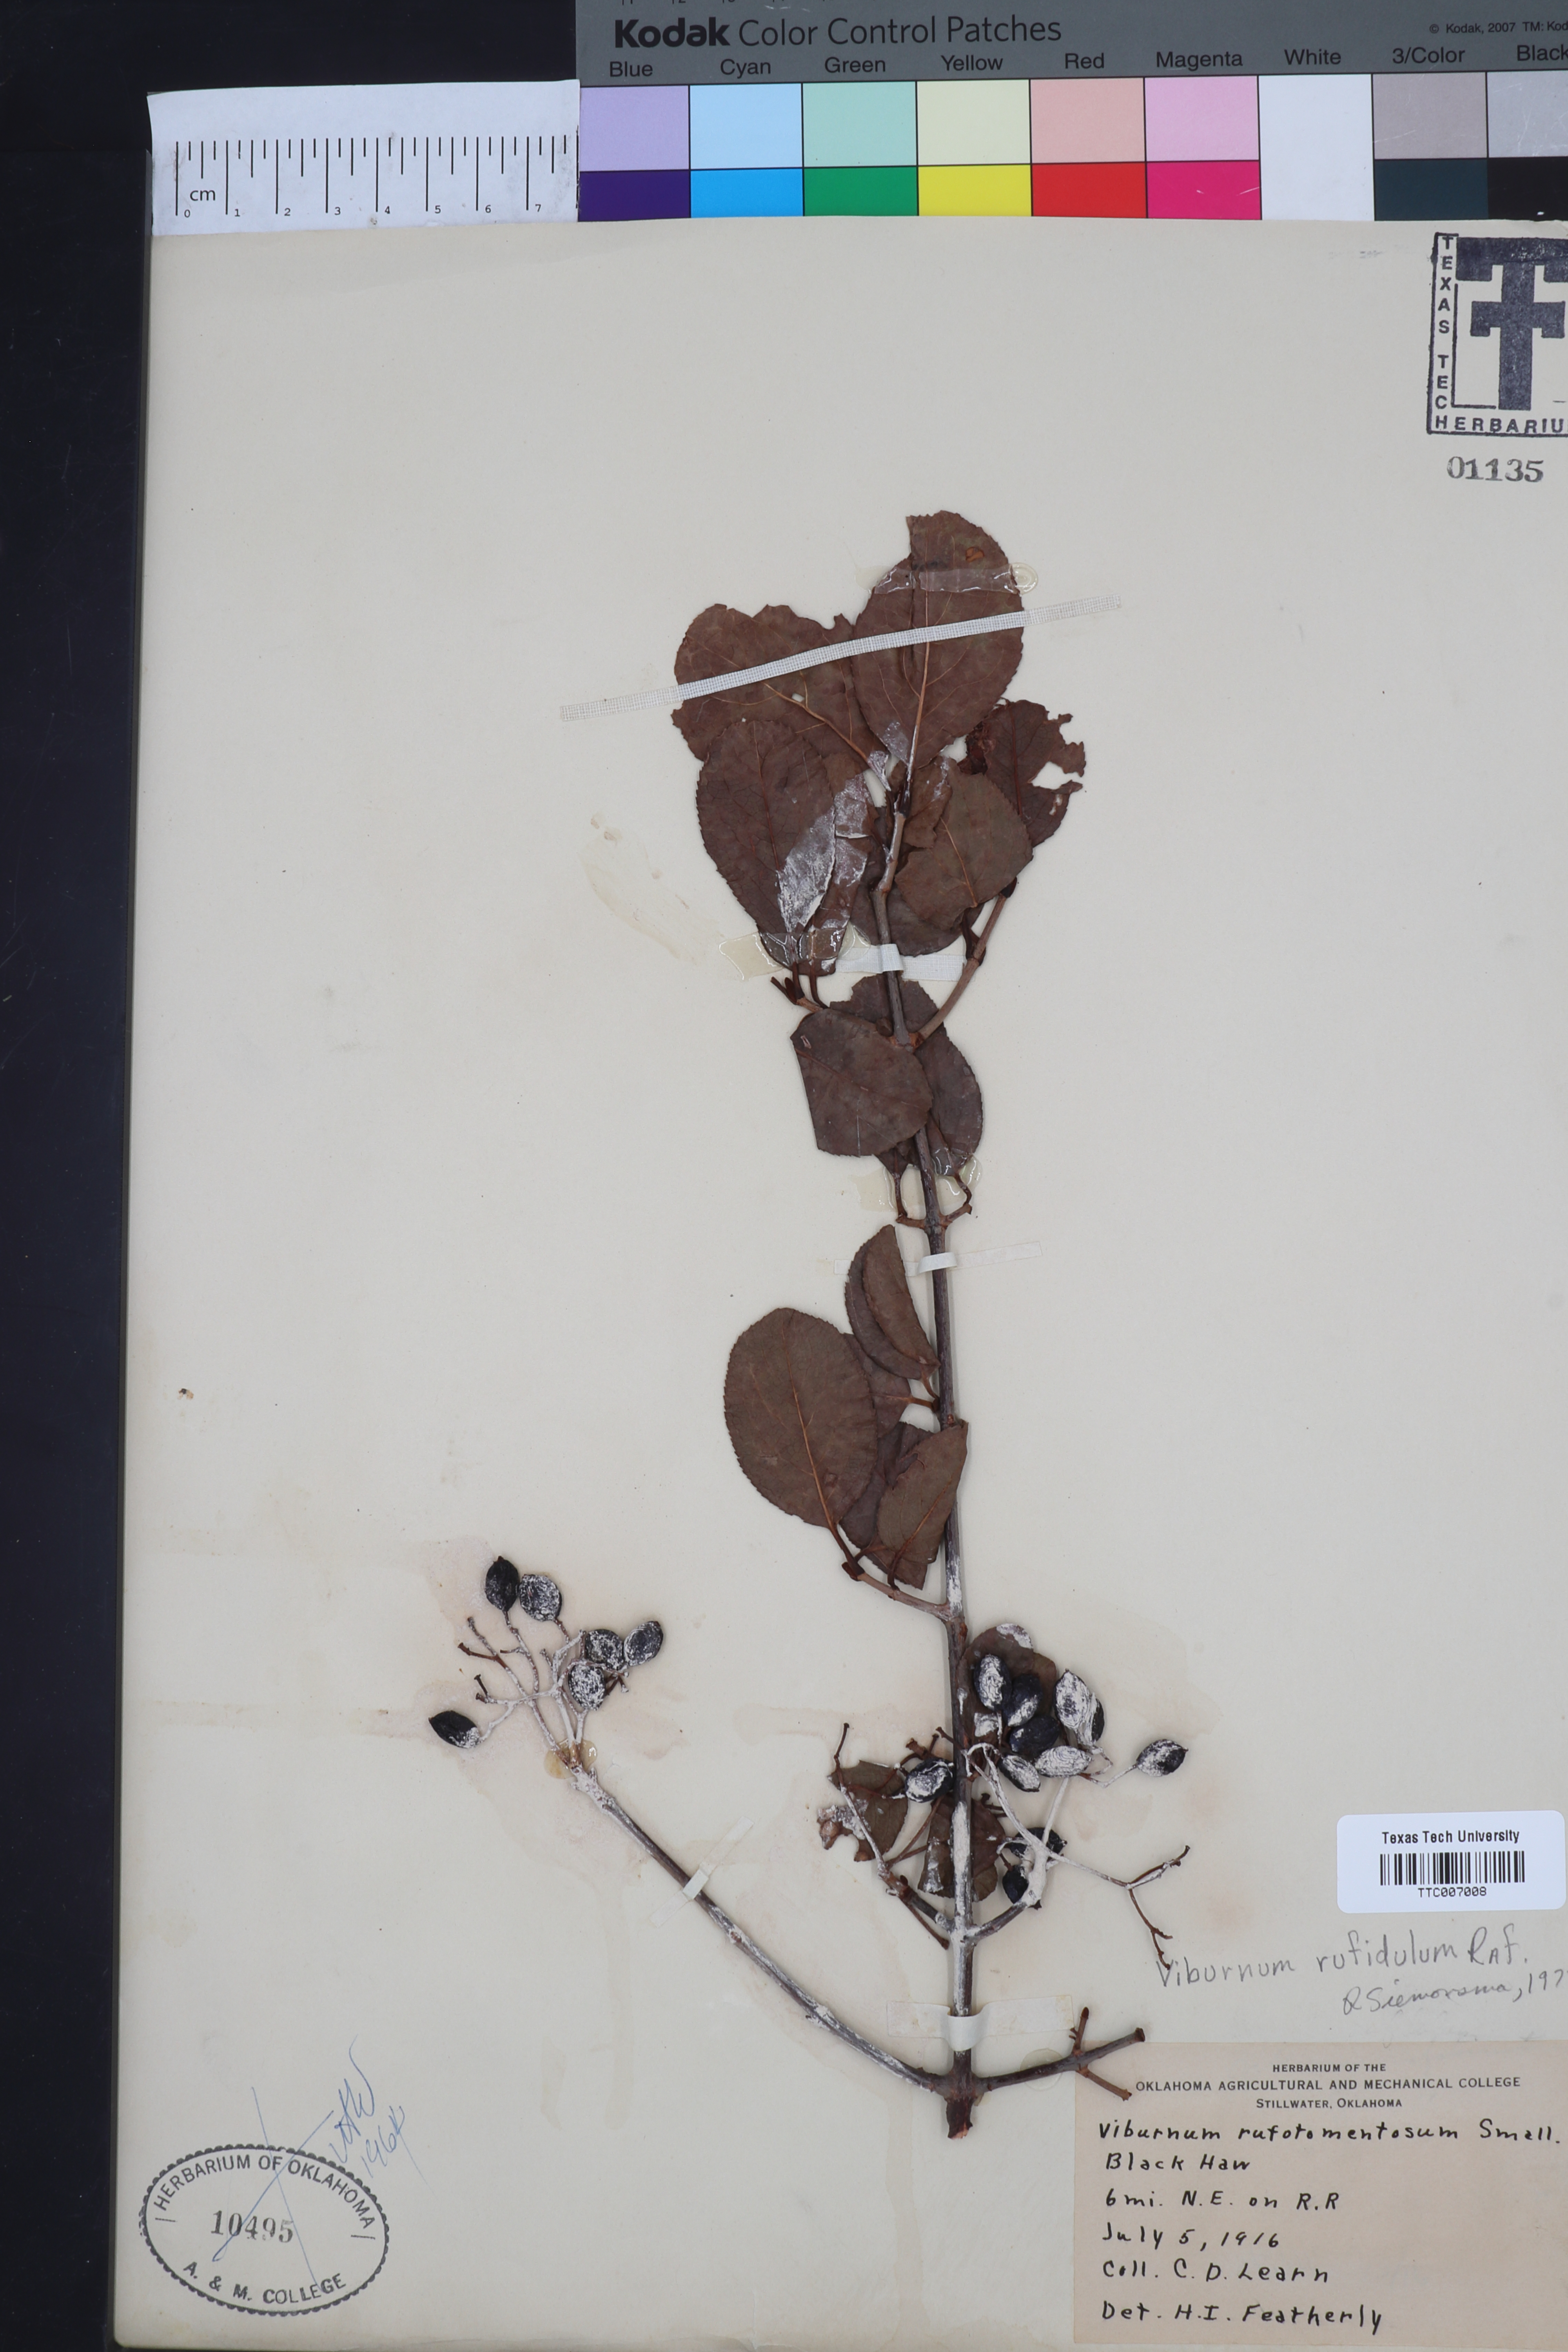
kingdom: Plantae
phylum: Tracheophyta
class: Magnoliopsida
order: Dipsacales
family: Viburnaceae
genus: Viburnum
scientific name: Viburnum rufidulum
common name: Blue haw
